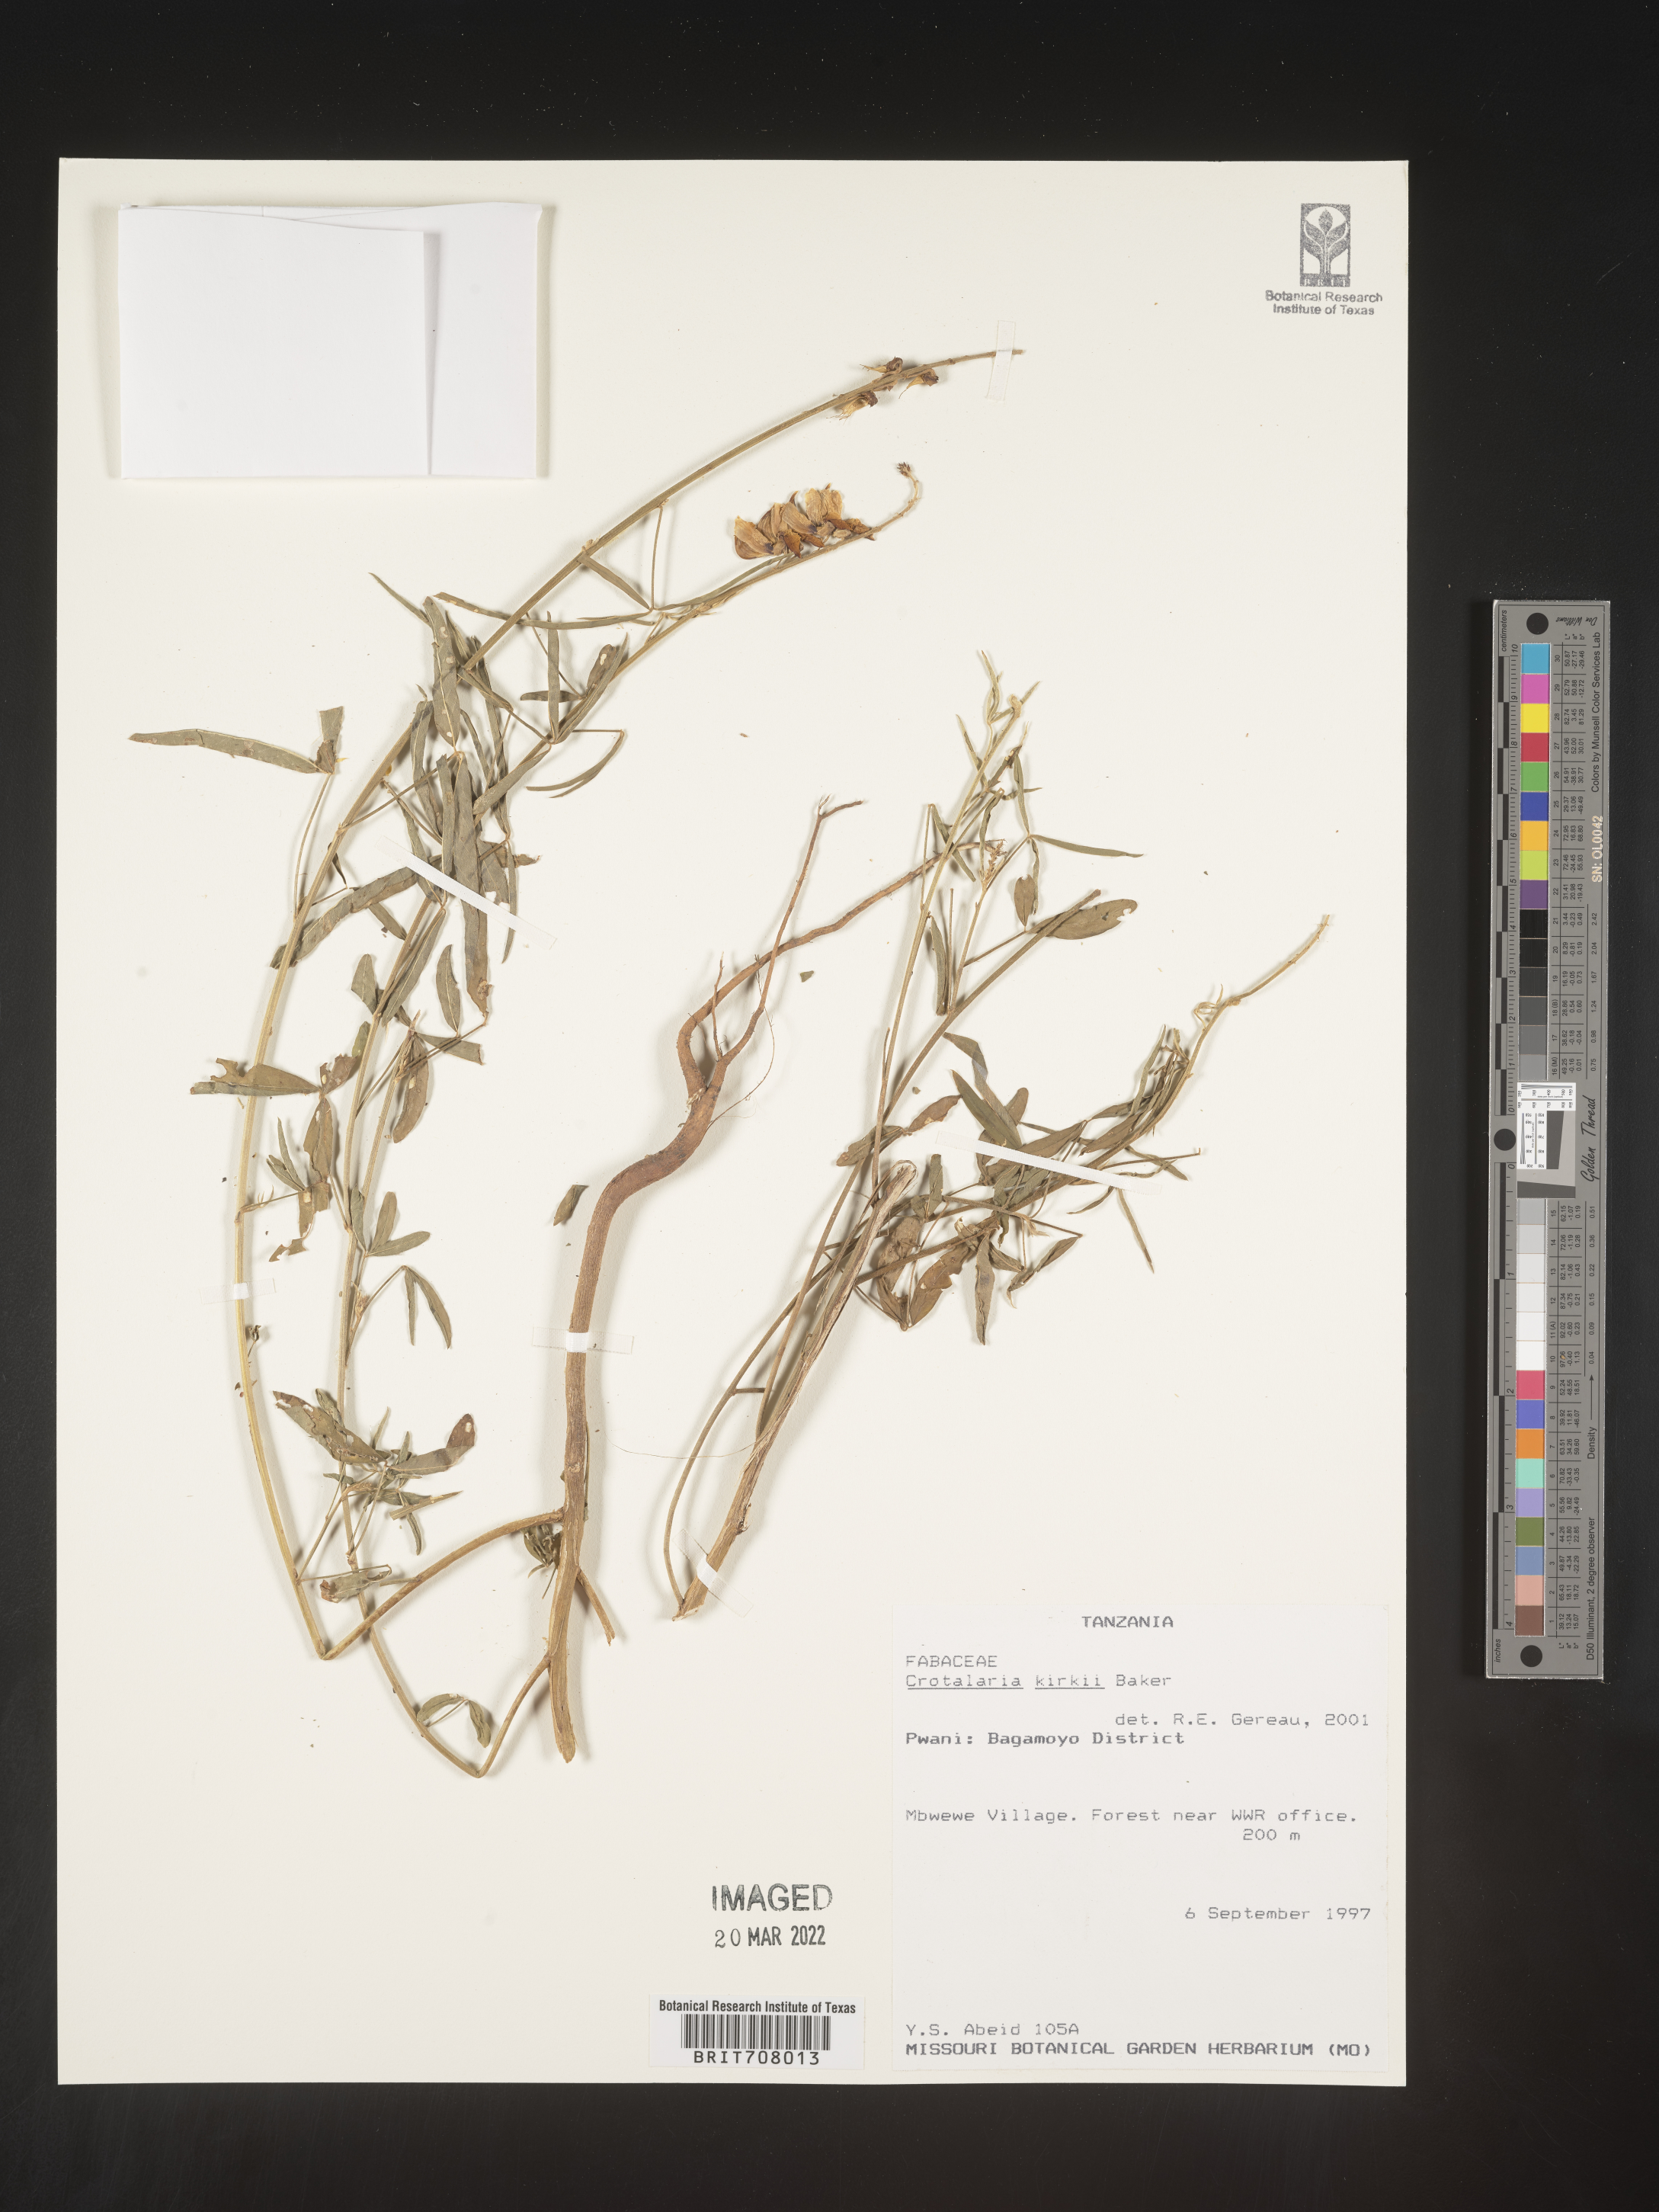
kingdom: Plantae
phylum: Tracheophyta
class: Magnoliopsida
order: Fabales
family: Fabaceae
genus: Crotalaria
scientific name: Crotalaria
